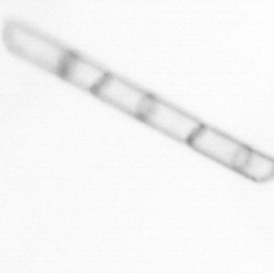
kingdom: Chromista
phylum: Ochrophyta
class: Bacillariophyceae
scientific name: Bacillariophyceae
